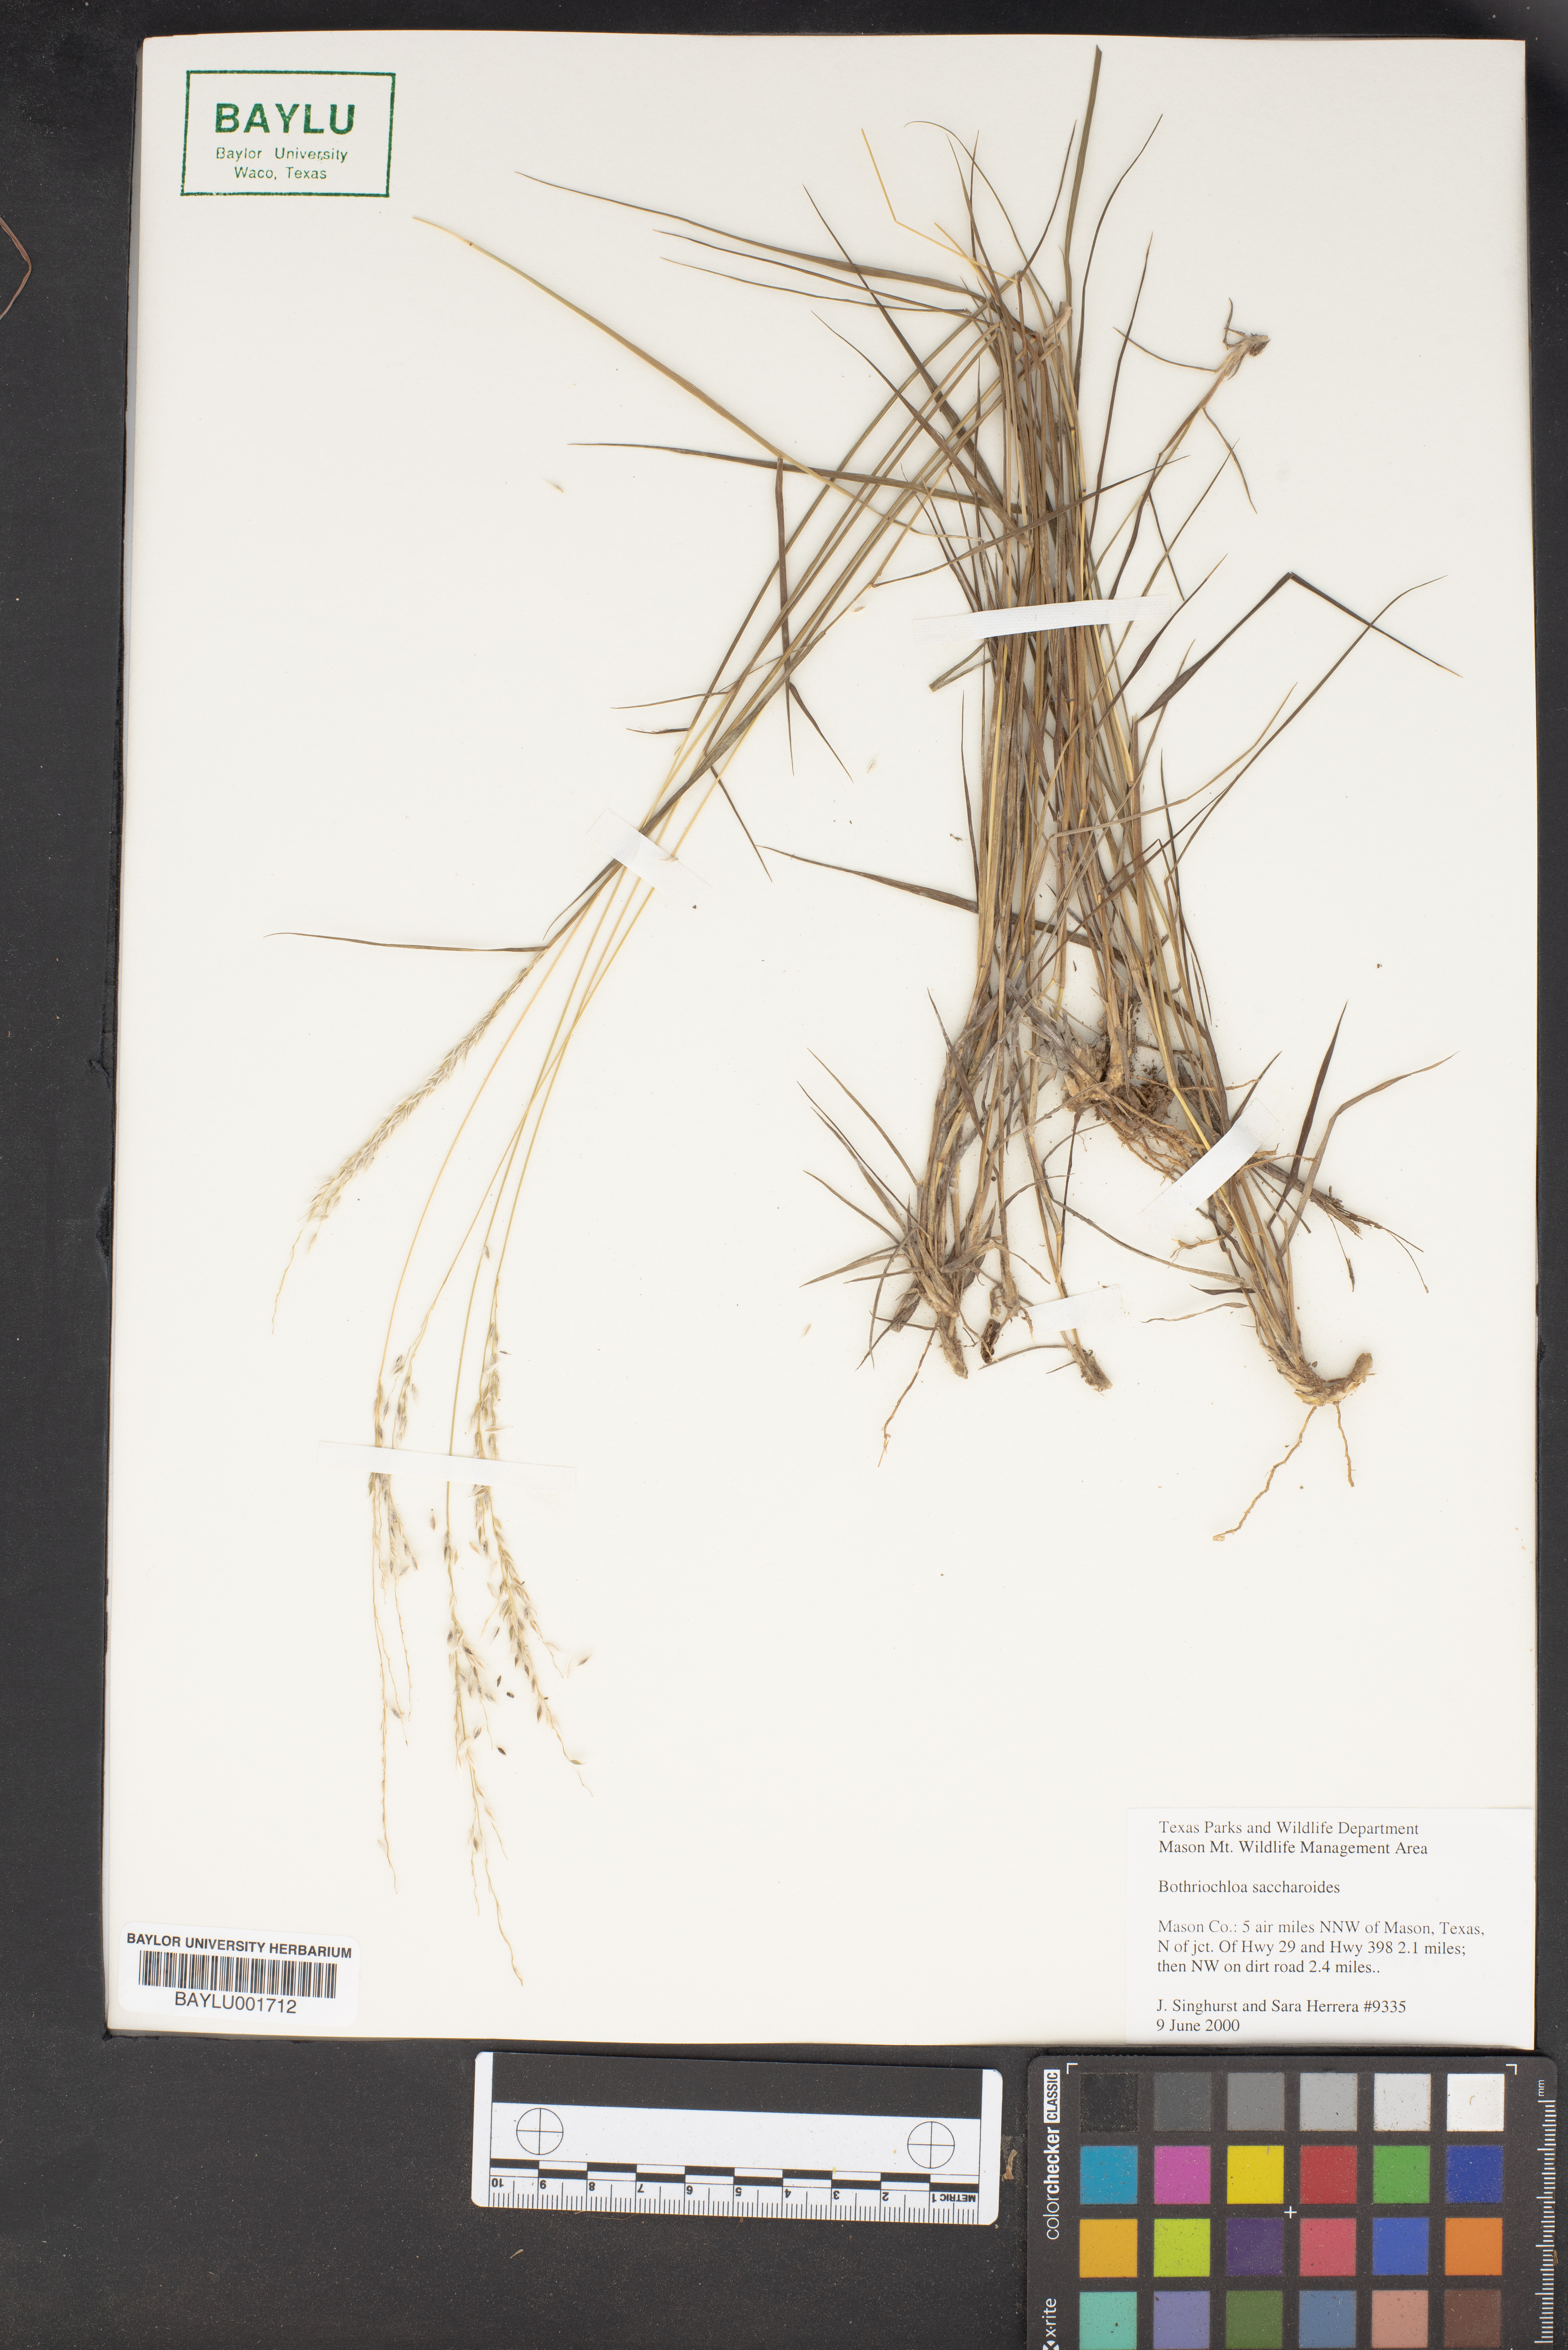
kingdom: Plantae
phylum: Tracheophyta
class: Liliopsida
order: Poales
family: Poaceae
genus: Bothriochloa
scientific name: Bothriochloa saccharoides
